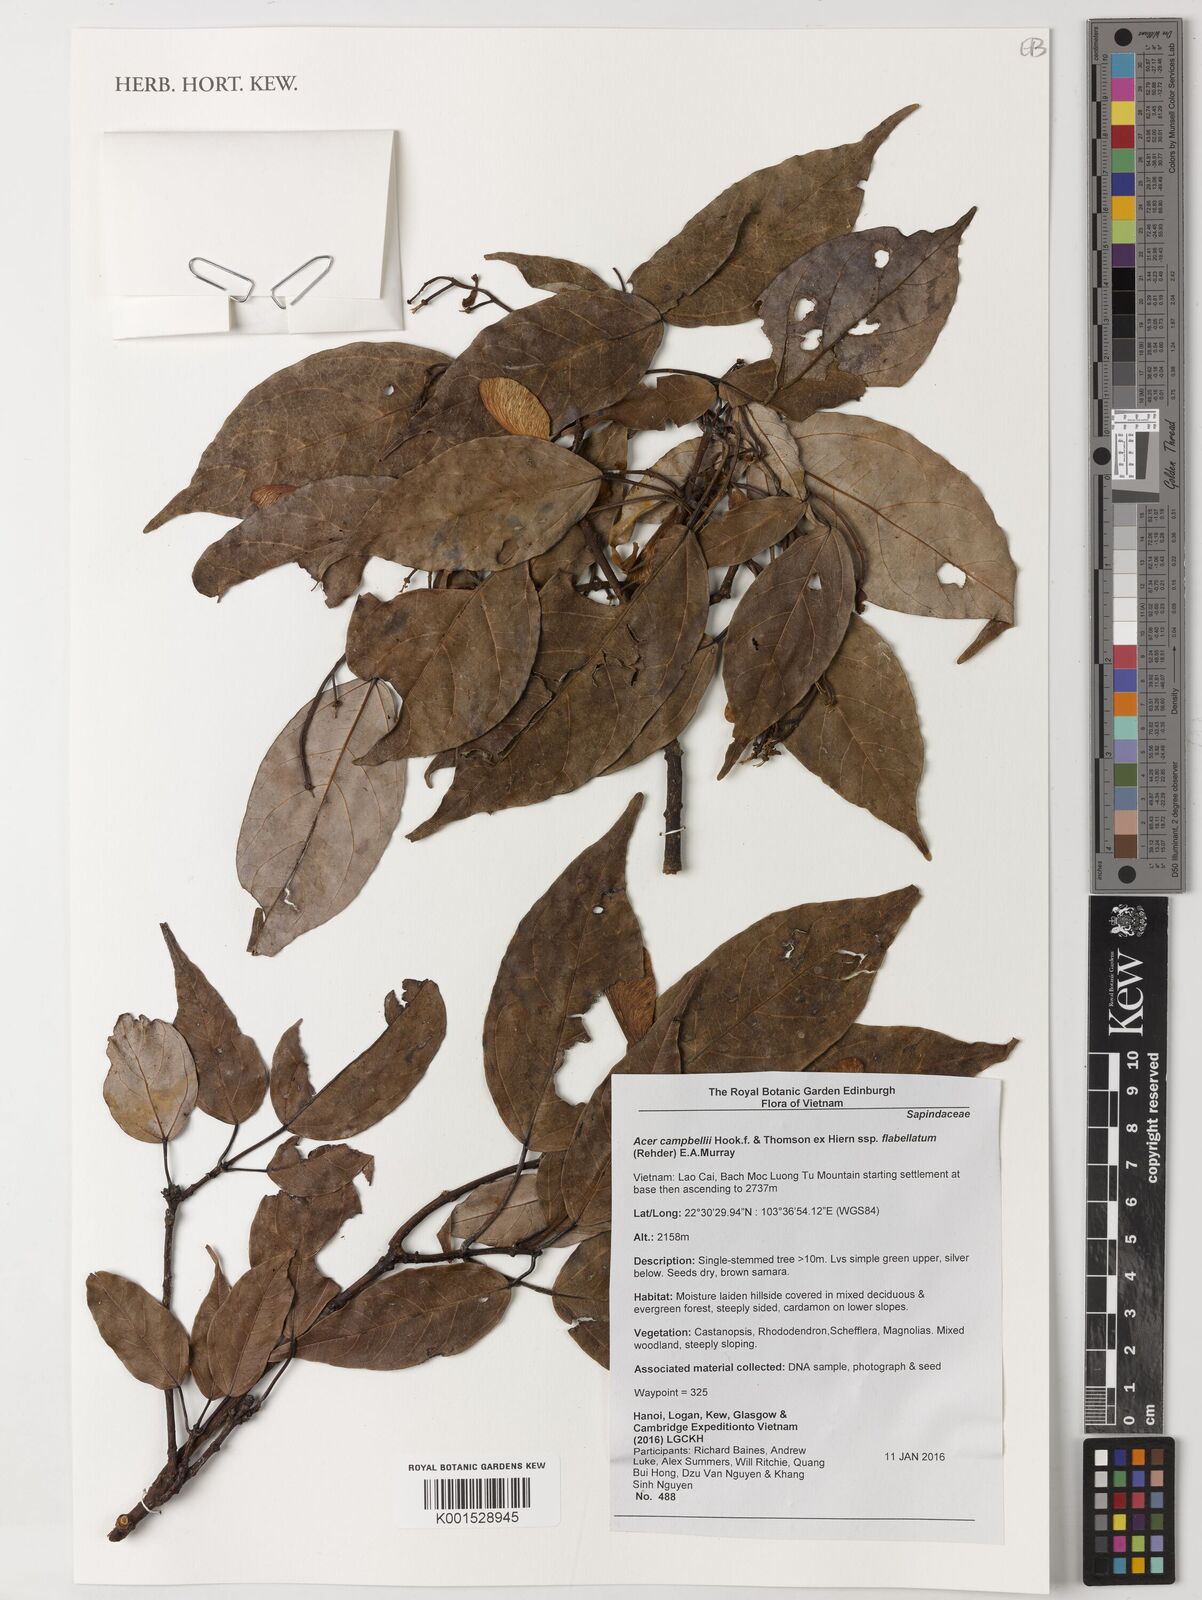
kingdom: Plantae
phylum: Tracheophyta
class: Magnoliopsida
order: Sapindales
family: Sapindaceae
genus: Acer
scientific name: Acer campbellii
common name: Campbell's maple
